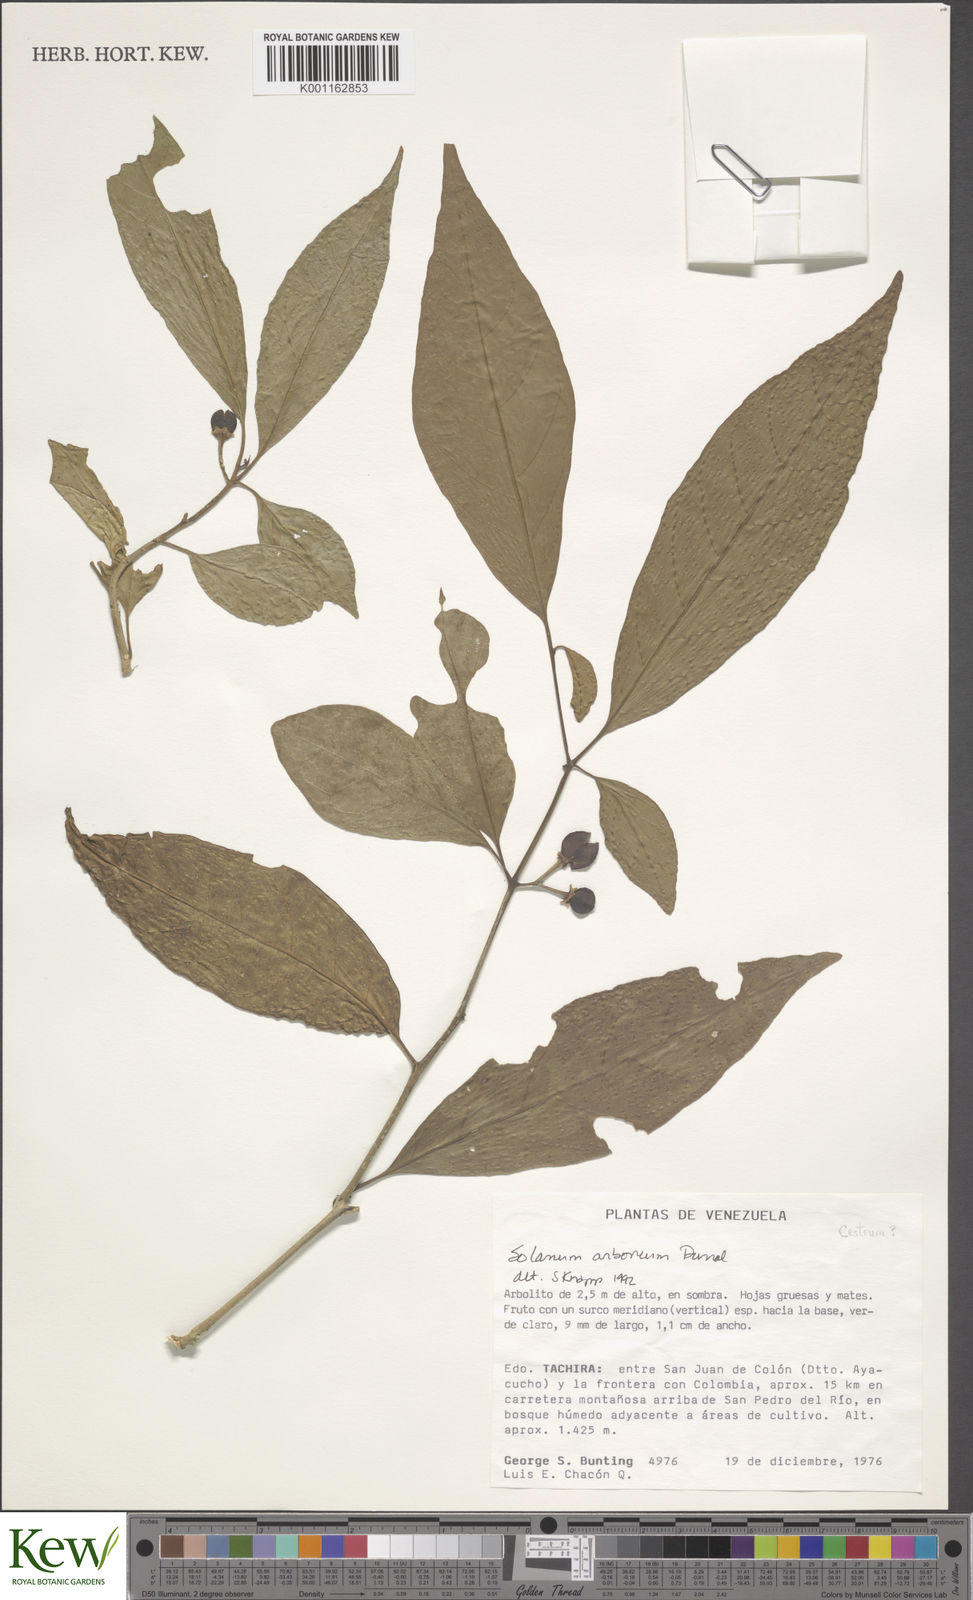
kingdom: Plantae
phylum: Tracheophyta
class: Magnoliopsida
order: Solanales
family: Solanaceae
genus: Solanum
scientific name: Solanum arboreum
